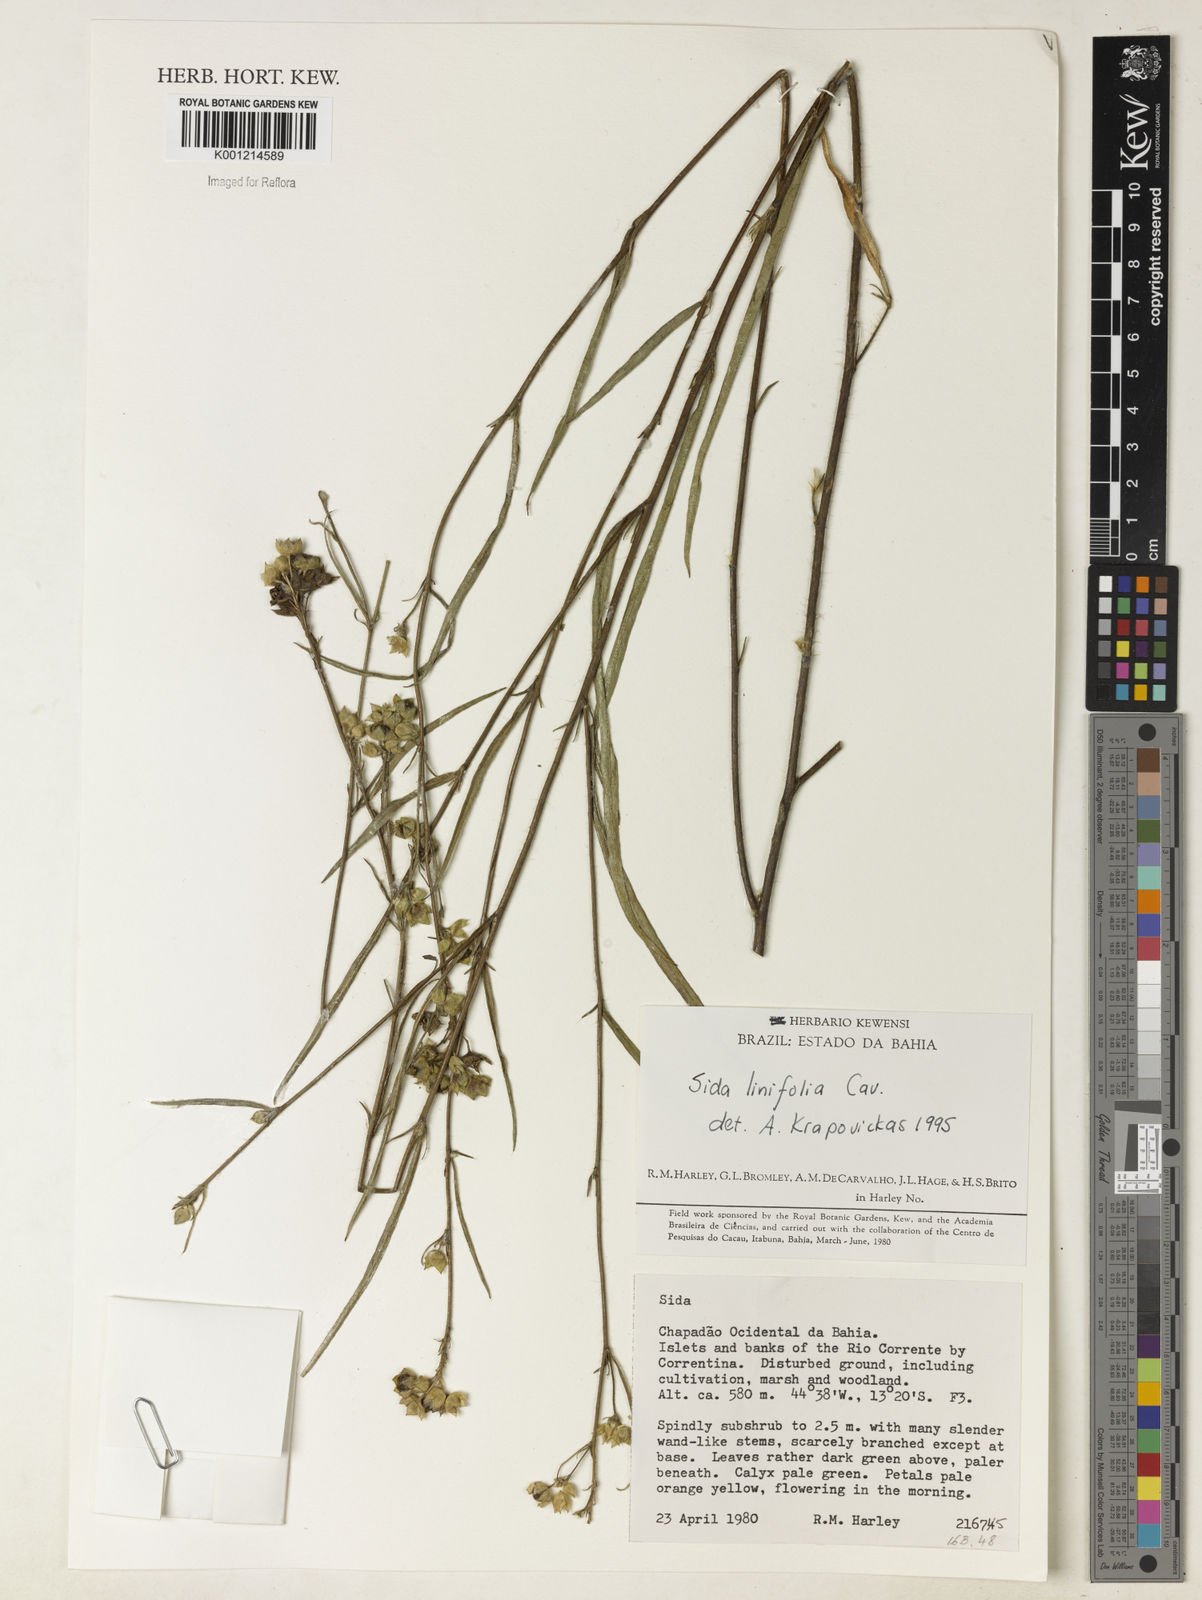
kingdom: Plantae
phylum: Tracheophyta
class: Magnoliopsida
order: Malvales
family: Malvaceae
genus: Sida
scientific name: Sida linifolia
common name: Flaxleaf fanpetals
